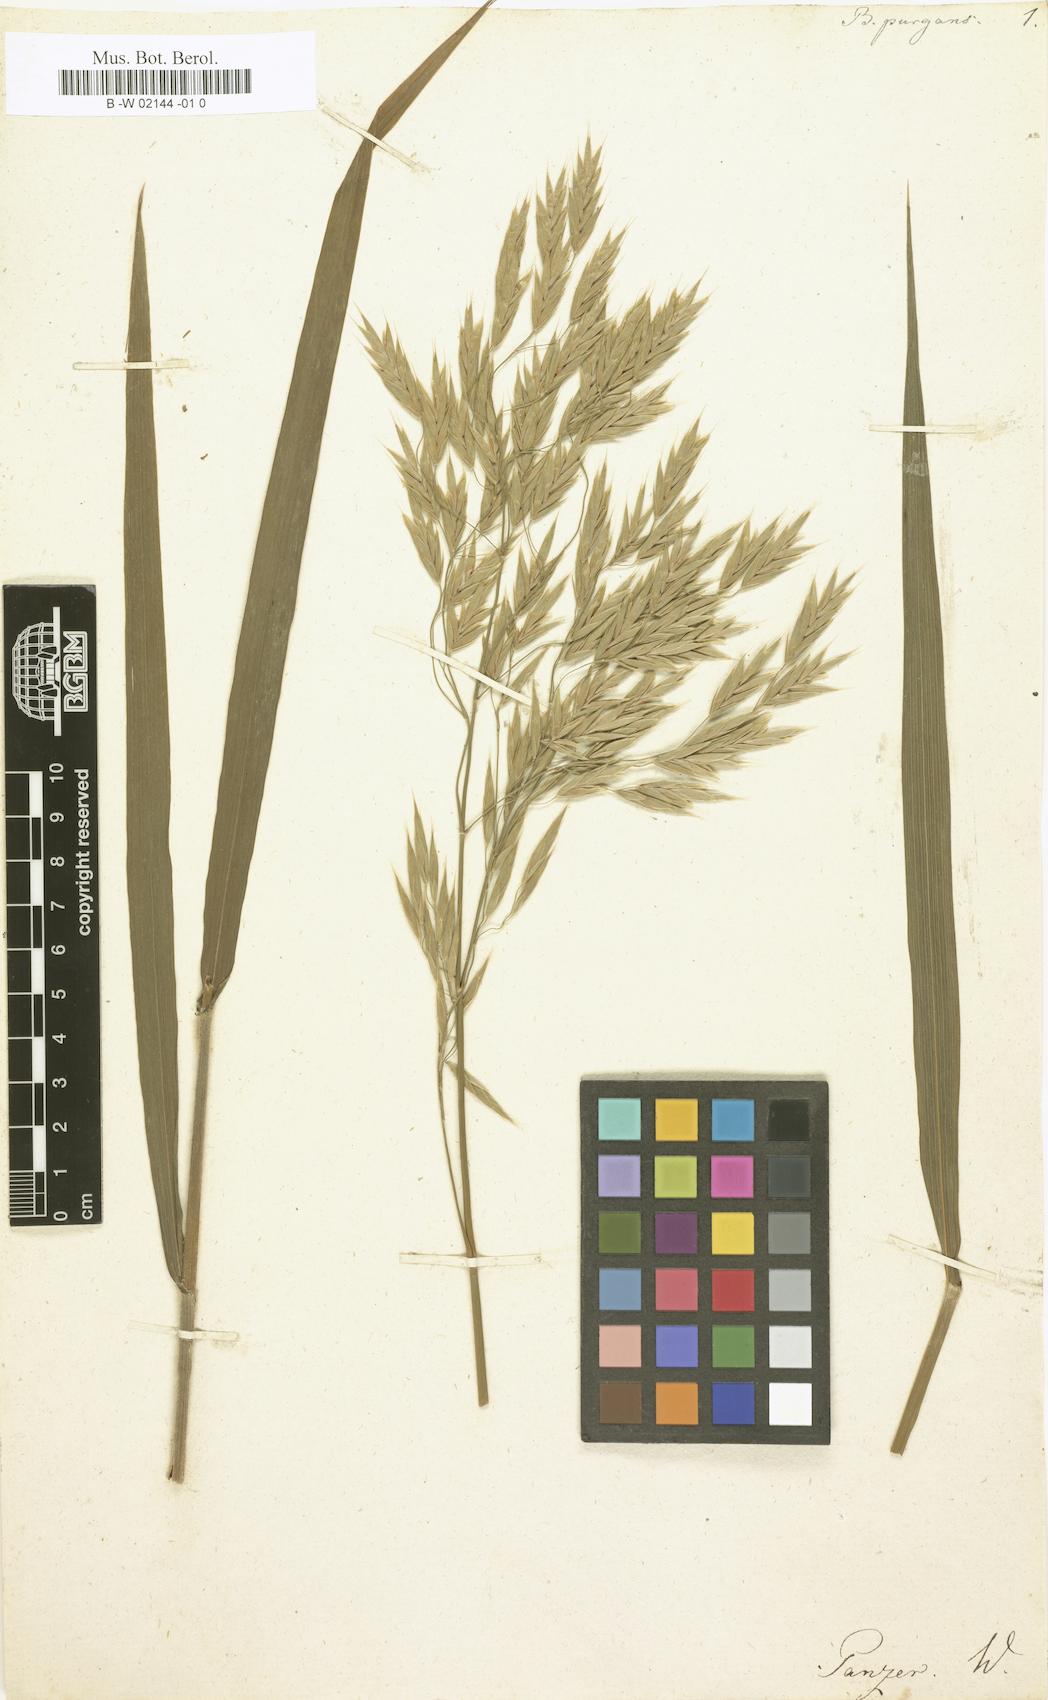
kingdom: Plantae
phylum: Tracheophyta
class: Liliopsida
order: Poales
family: Poaceae
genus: Bromus
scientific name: Bromus kalmii
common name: Kalm brome
